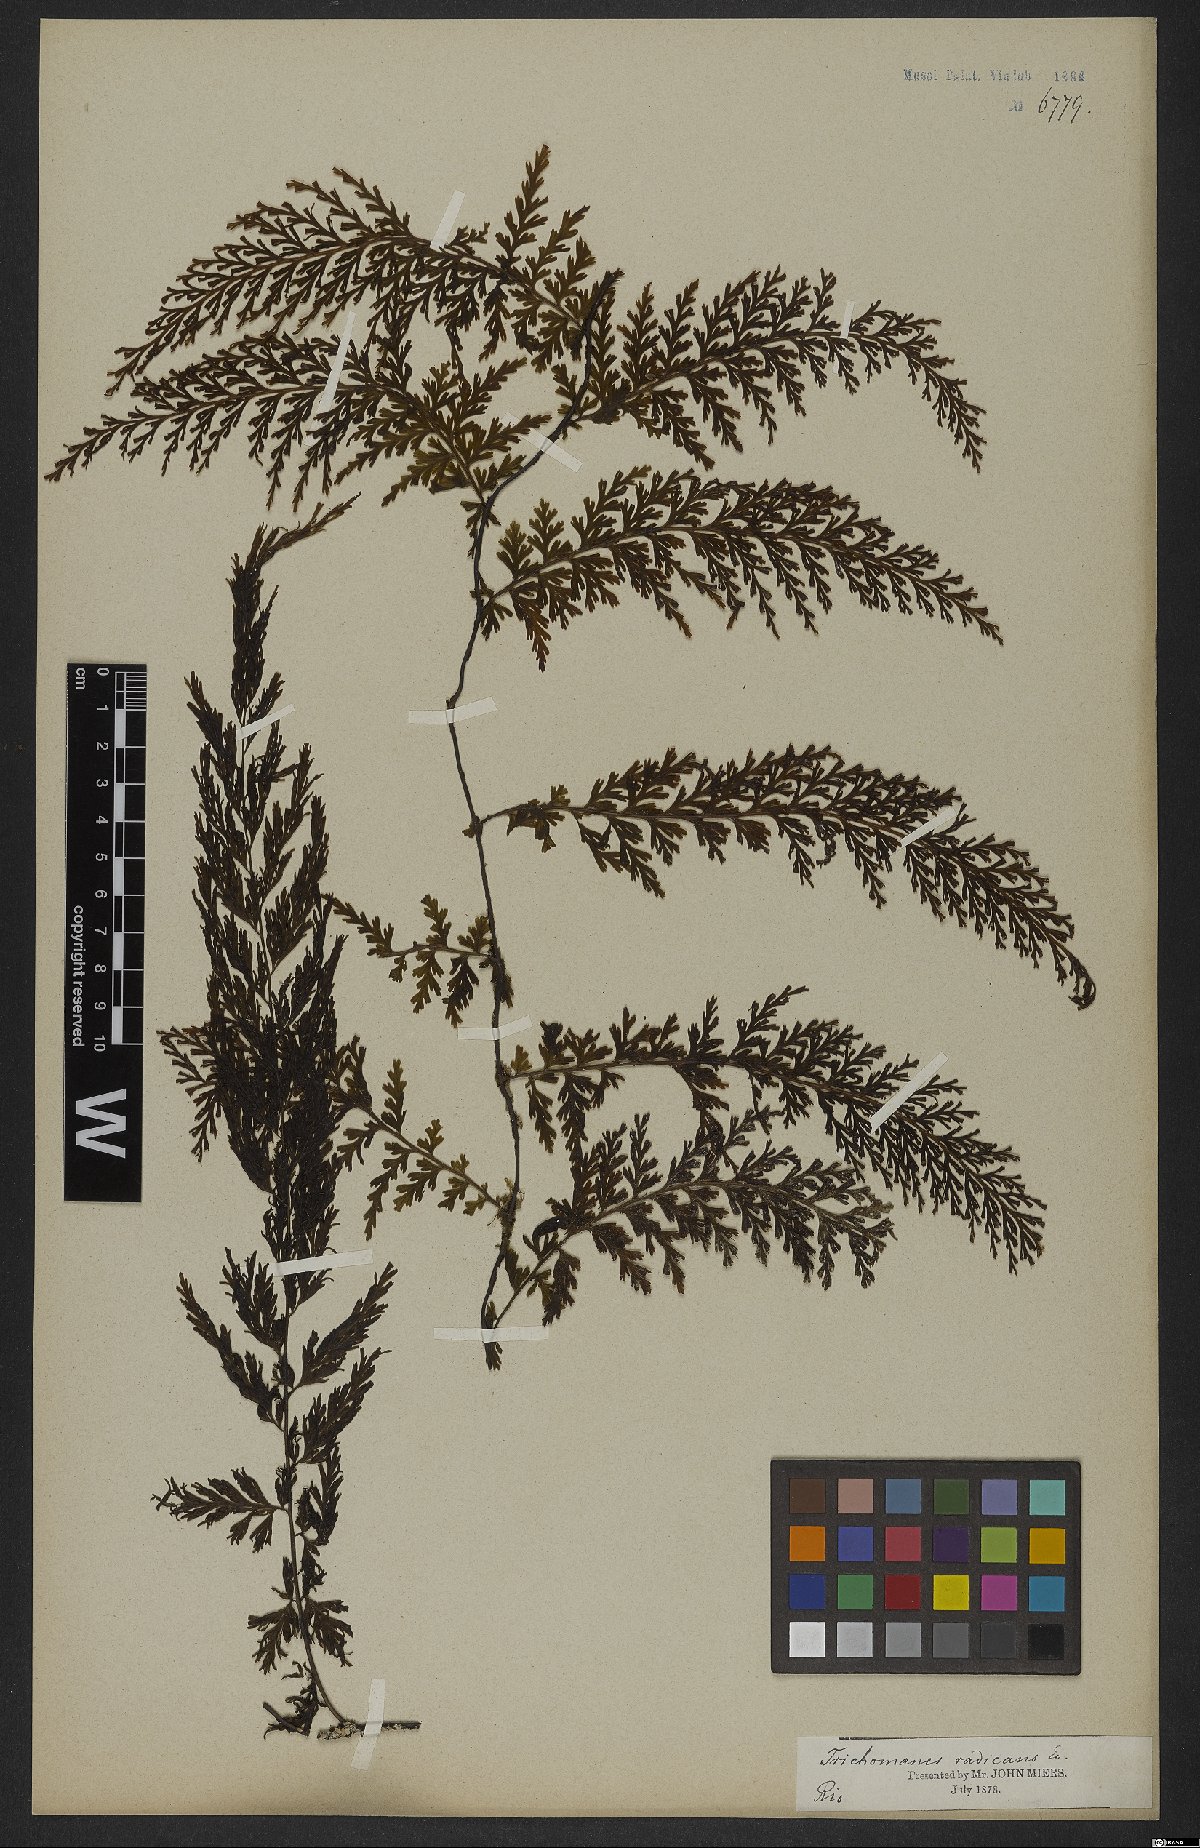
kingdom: Plantae
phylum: Tracheophyta
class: Polypodiopsida
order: Hymenophyllales
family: Hymenophyllaceae
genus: Vandenboschia
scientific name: Vandenboschia radicans
